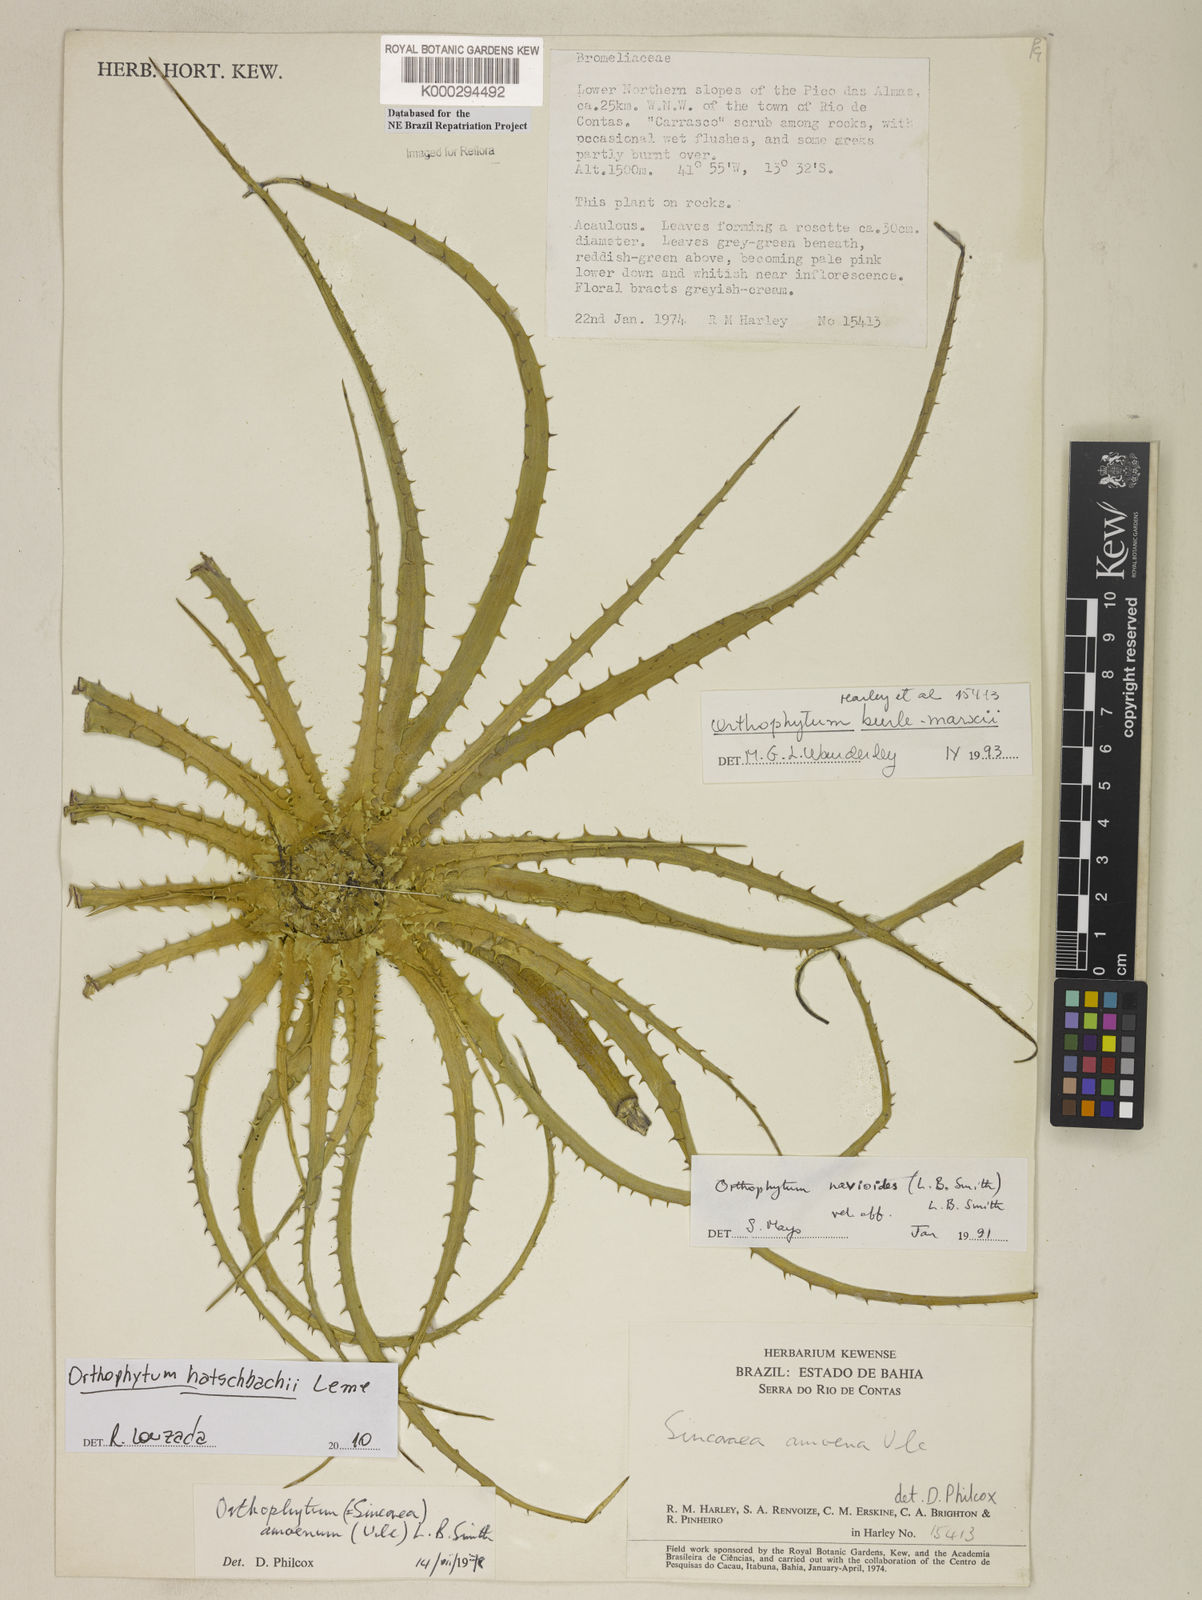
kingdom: Plantae
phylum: Tracheophyta
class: Liliopsida
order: Poales
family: Bromeliaceae
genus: Sincoraea
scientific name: Sincoraea burle-marxii
